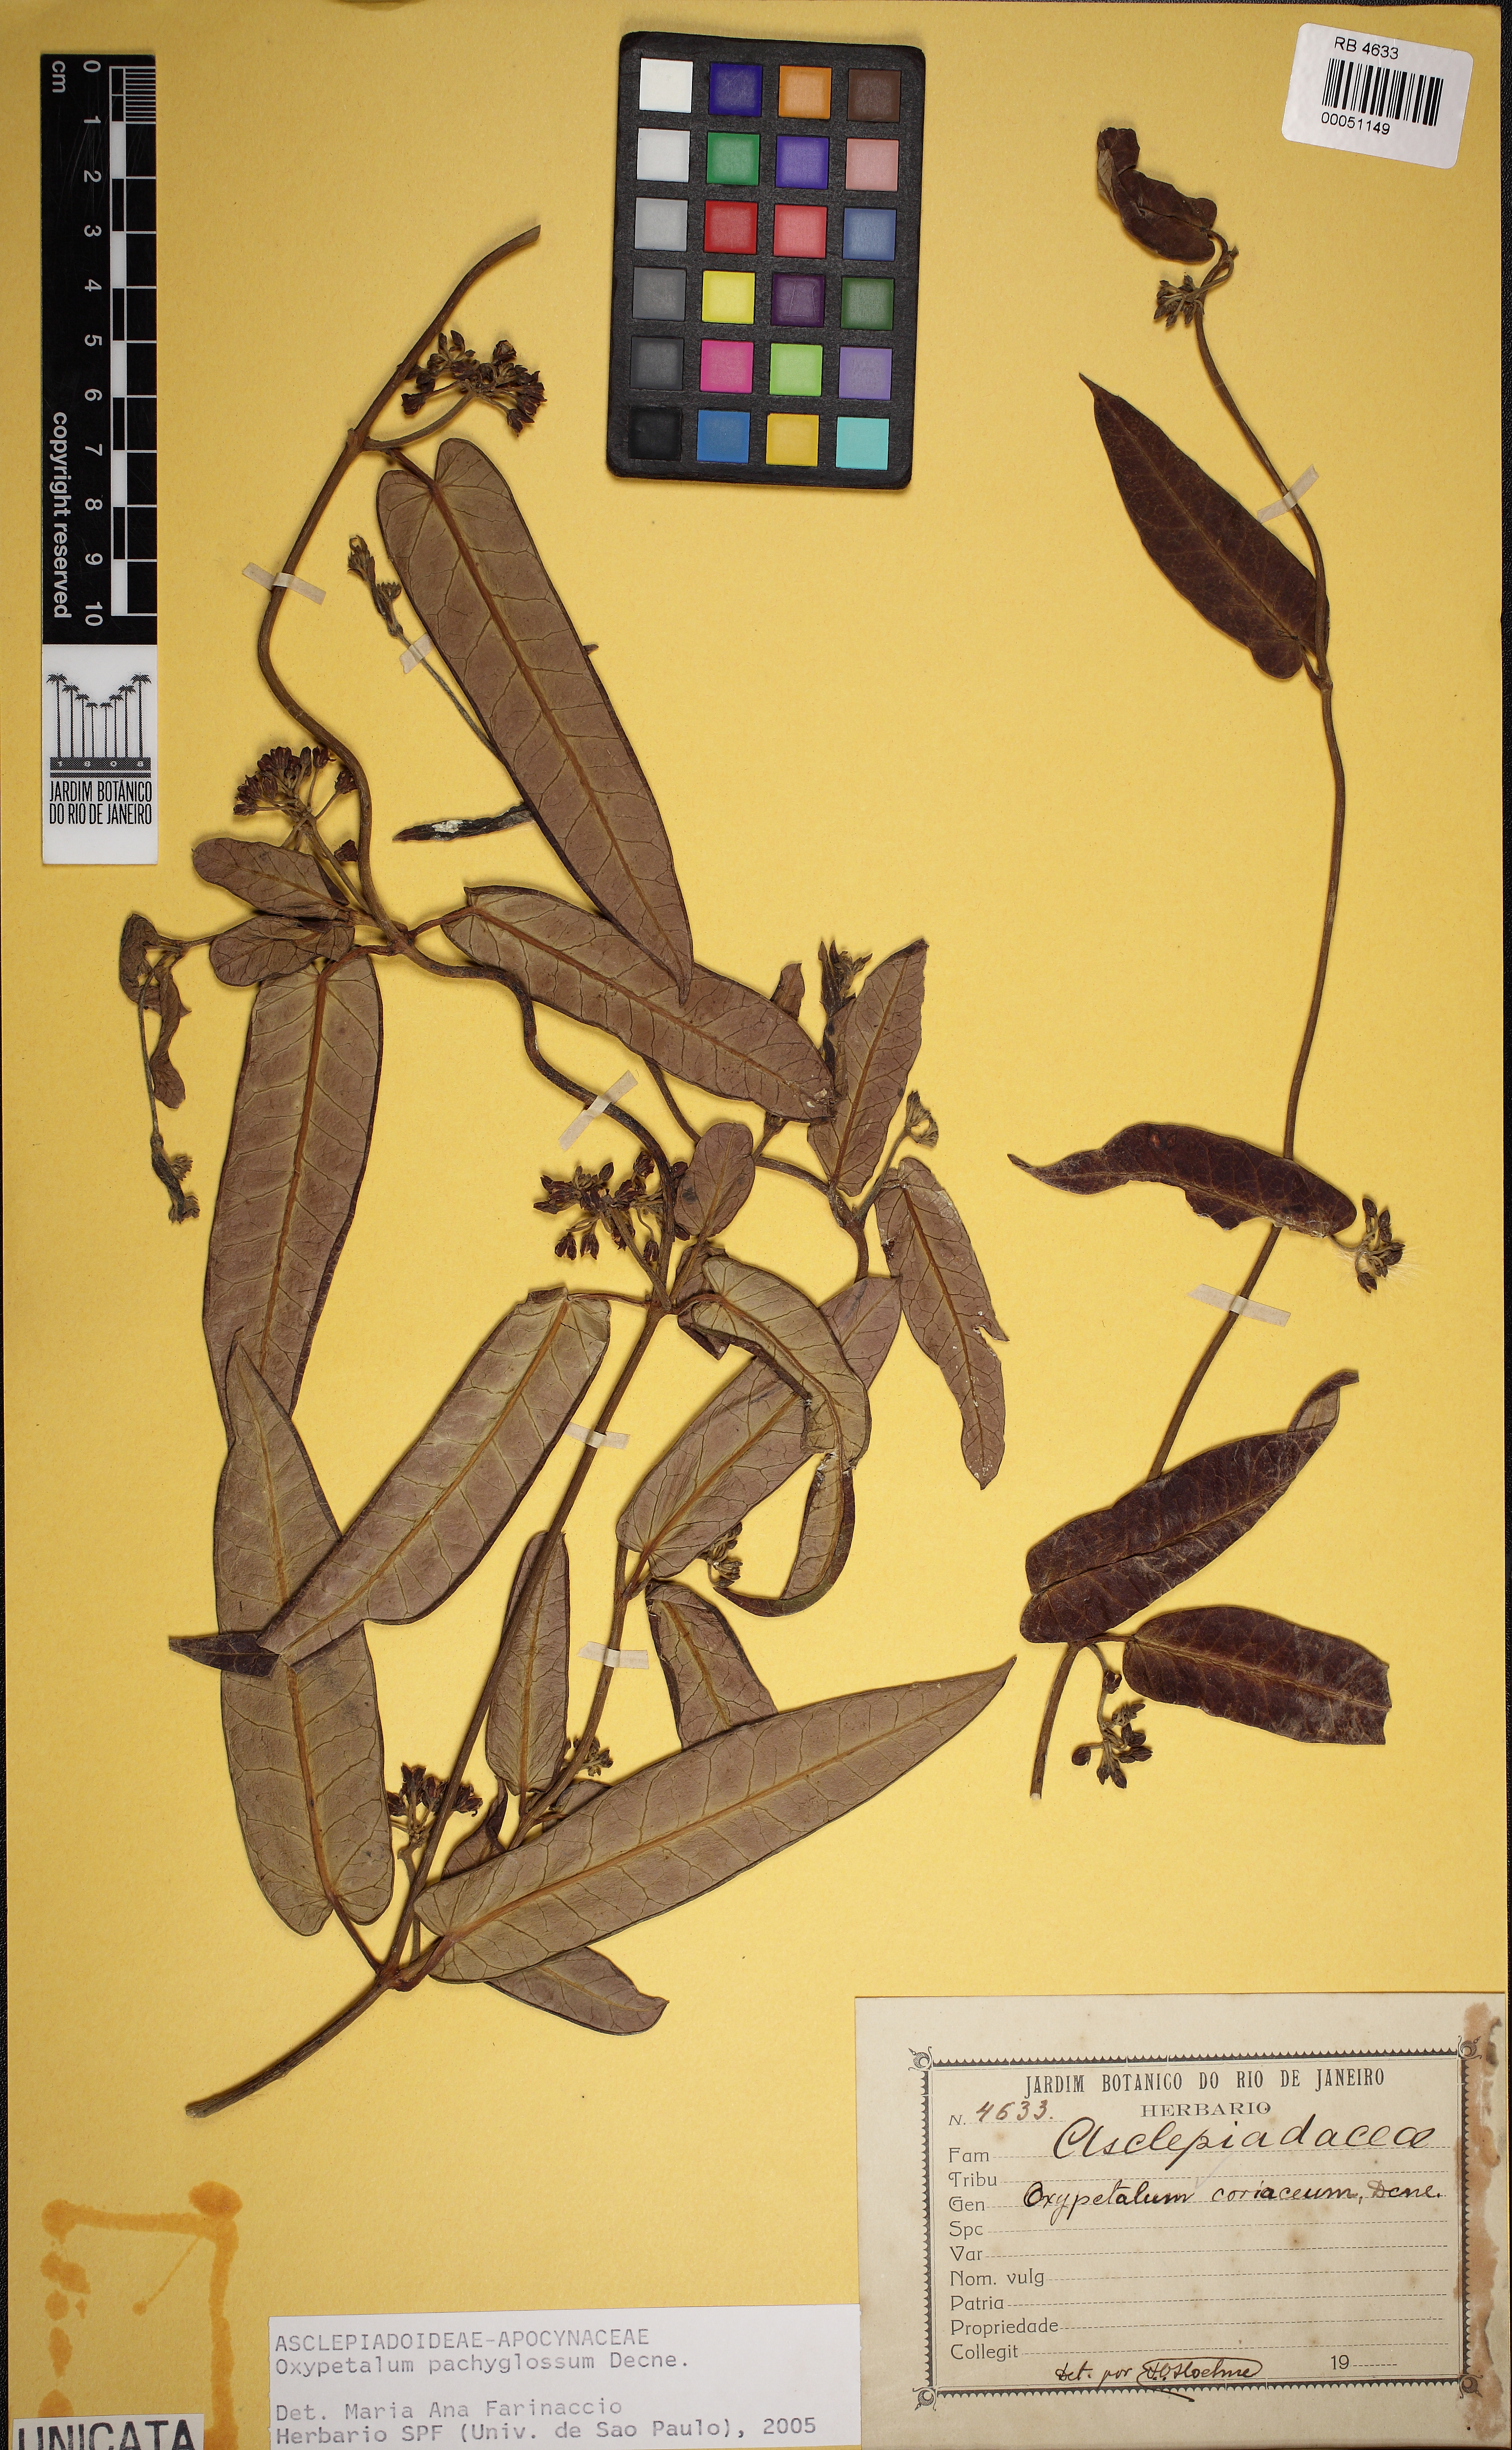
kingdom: Plantae
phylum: Tracheophyta
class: Magnoliopsida
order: Gentianales
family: Apocynaceae
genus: Oxypetalum
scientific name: Oxypetalum pachyglossum
